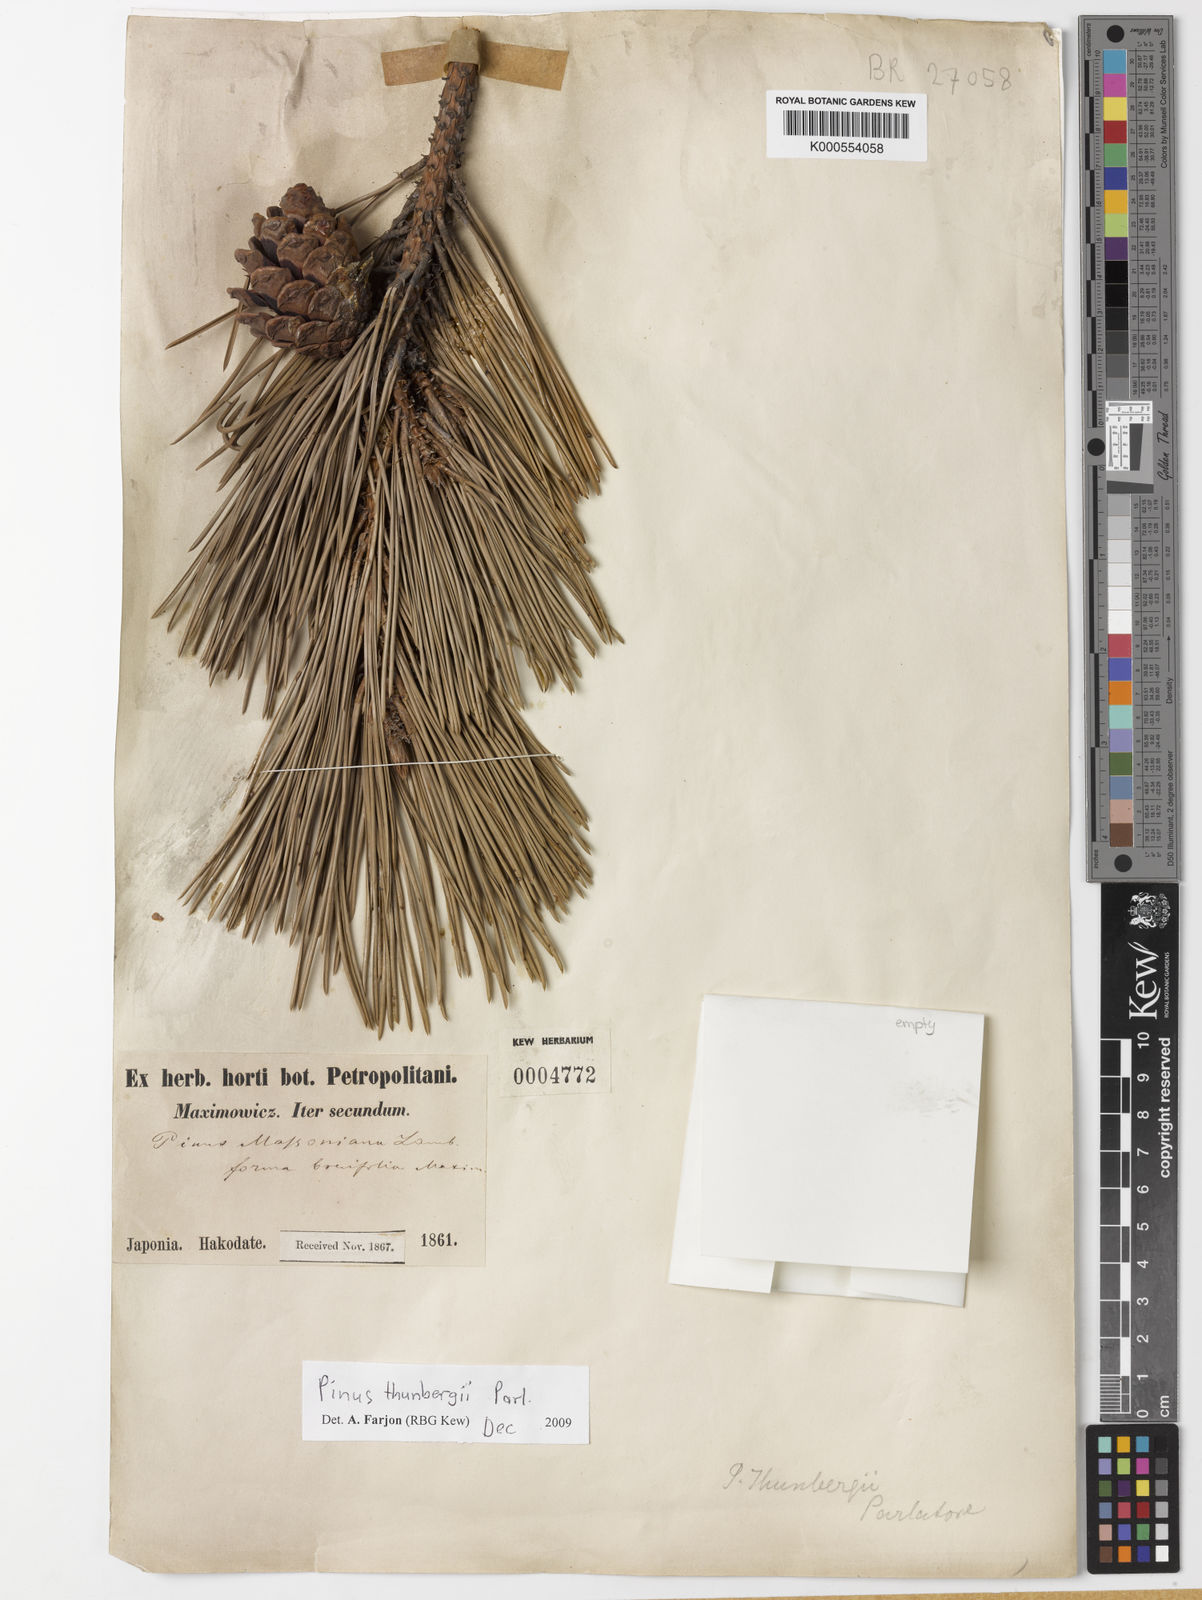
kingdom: Plantae
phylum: Tracheophyta
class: Pinopsida
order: Pinales
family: Pinaceae
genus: Pinus
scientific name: Pinus thunbergii
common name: Japanese black pine
